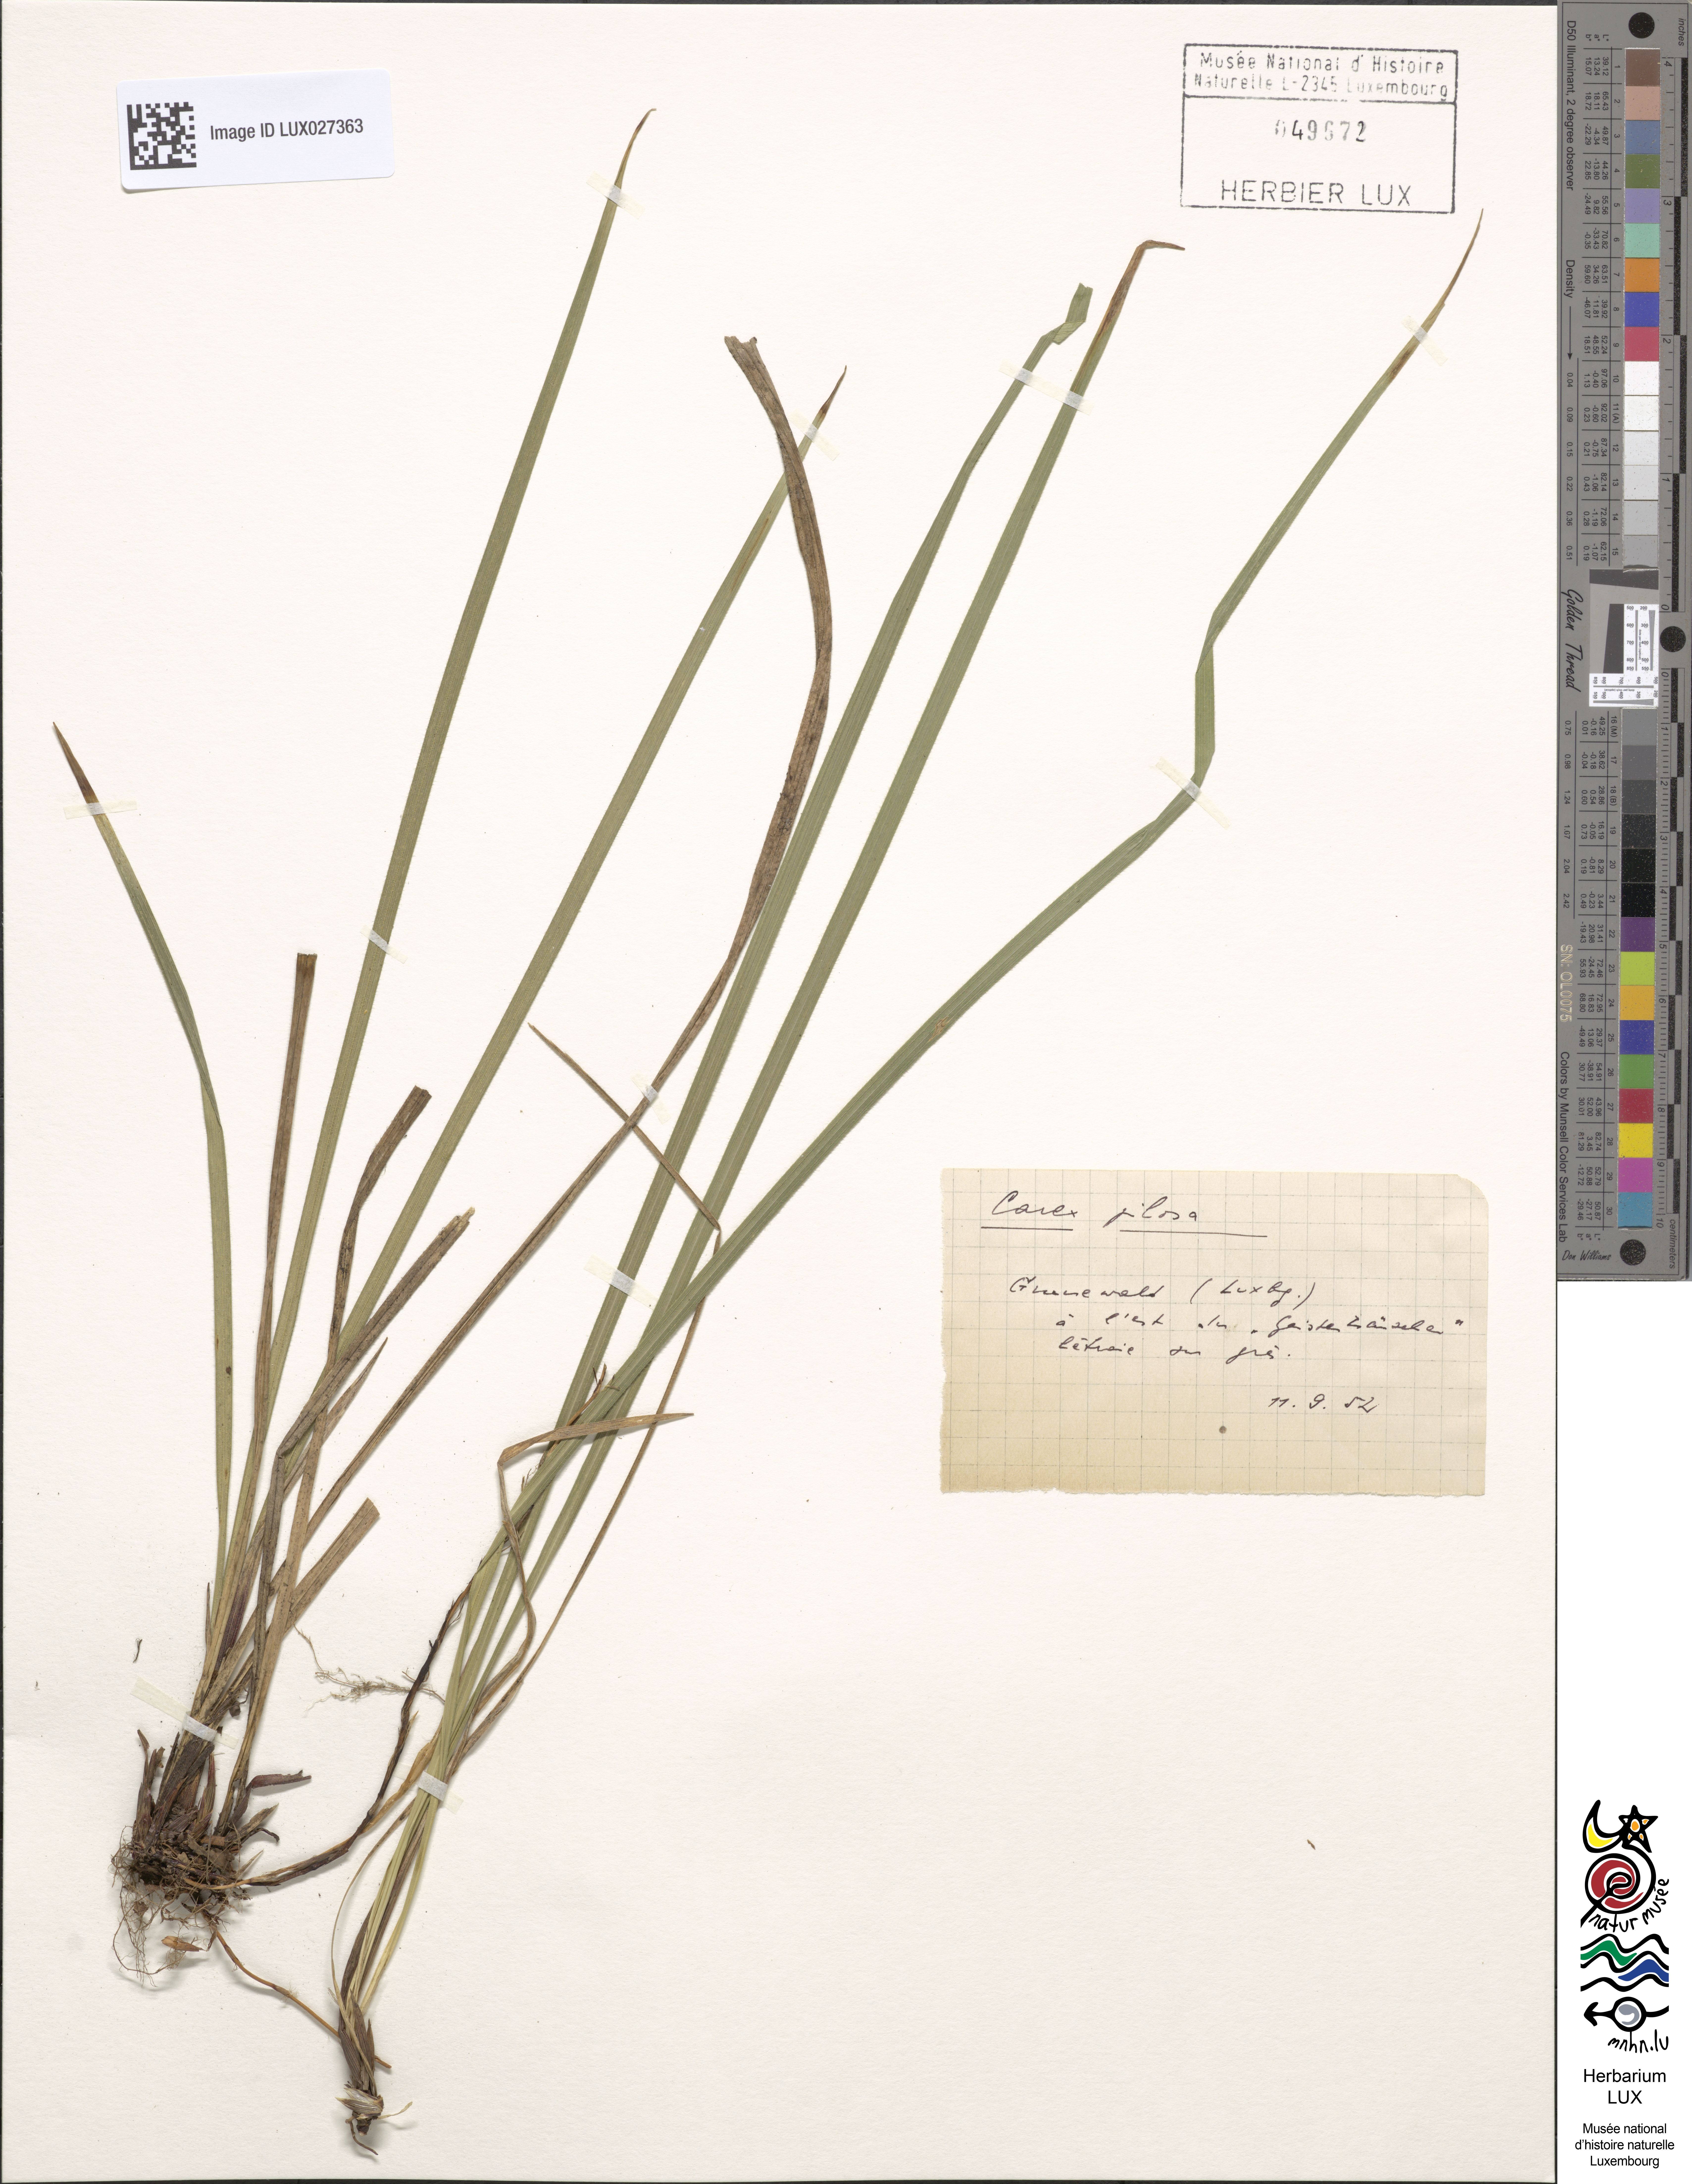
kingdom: Plantae
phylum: Tracheophyta
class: Liliopsida
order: Poales
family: Cyperaceae
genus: Carex
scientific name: Carex pilosa
